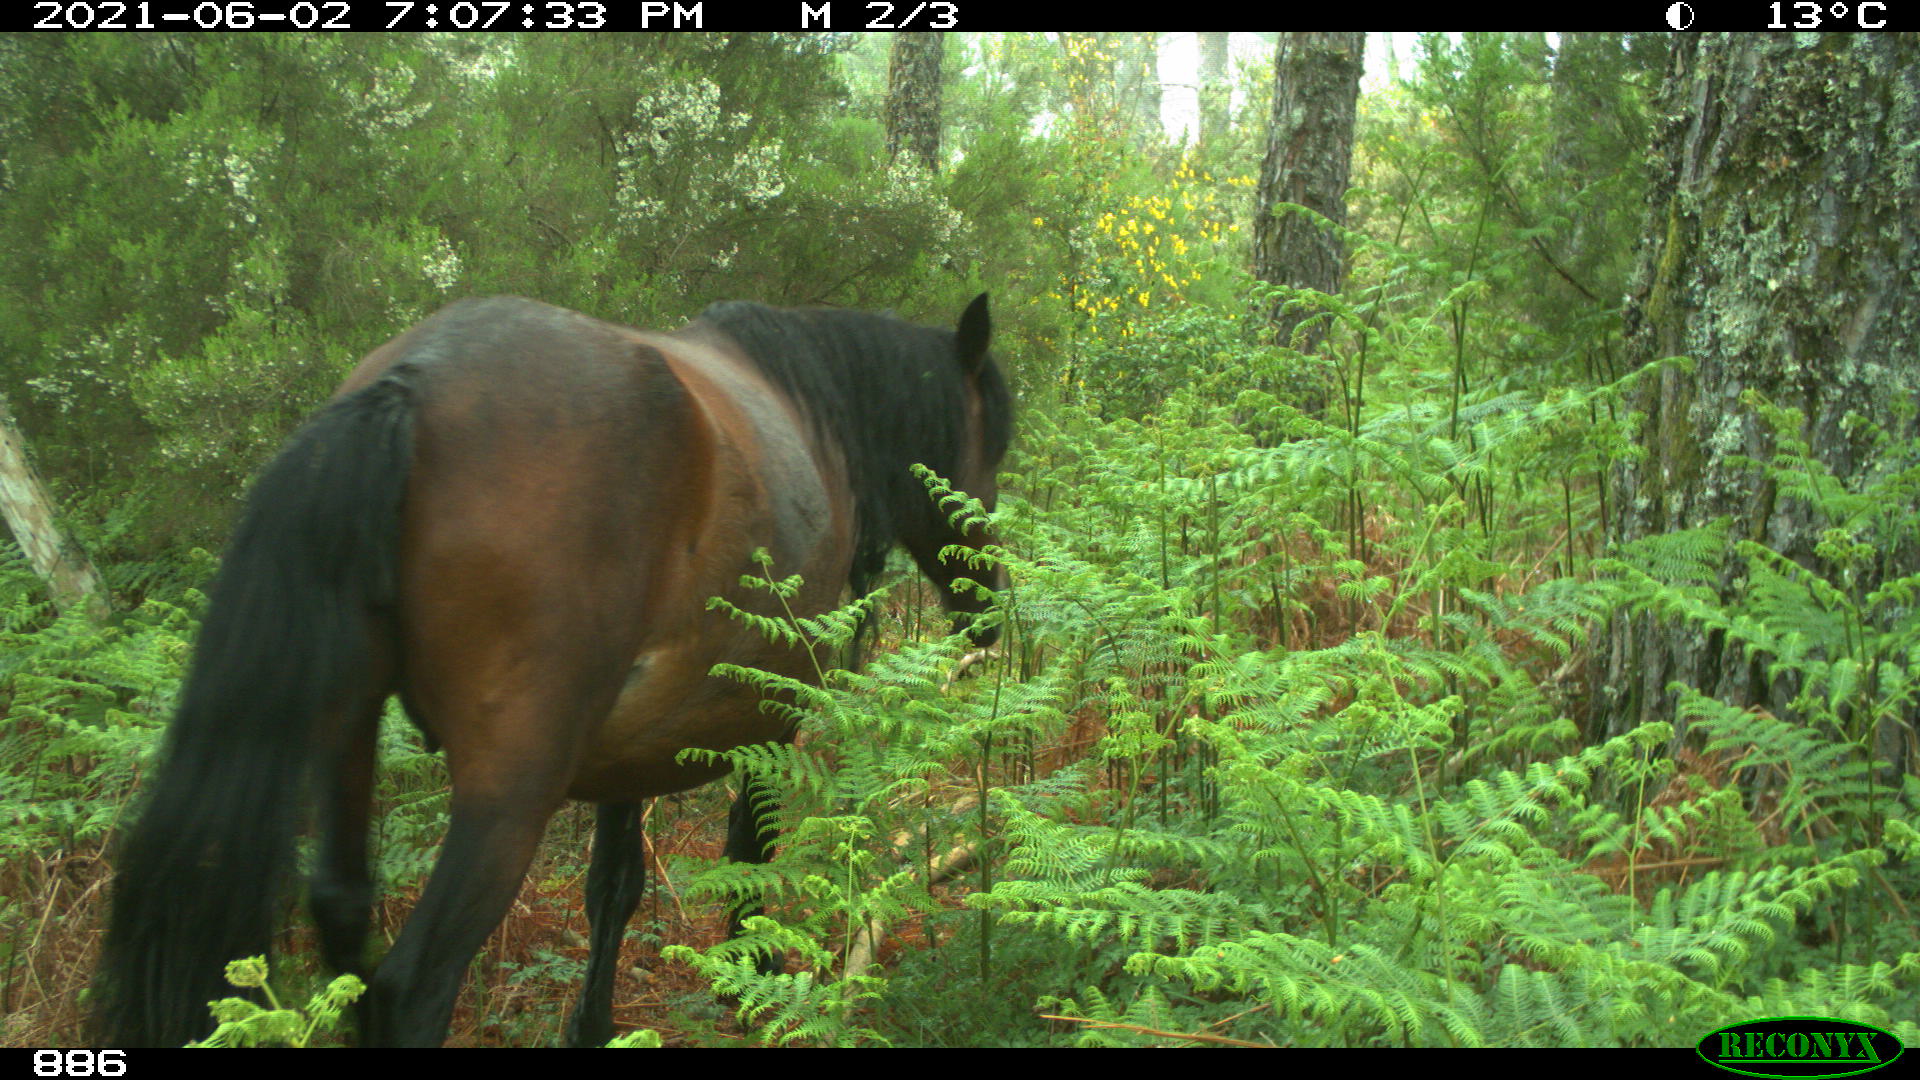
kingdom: Animalia
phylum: Chordata
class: Mammalia
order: Perissodactyla
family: Equidae
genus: Equus
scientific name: Equus caballus
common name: Horse
